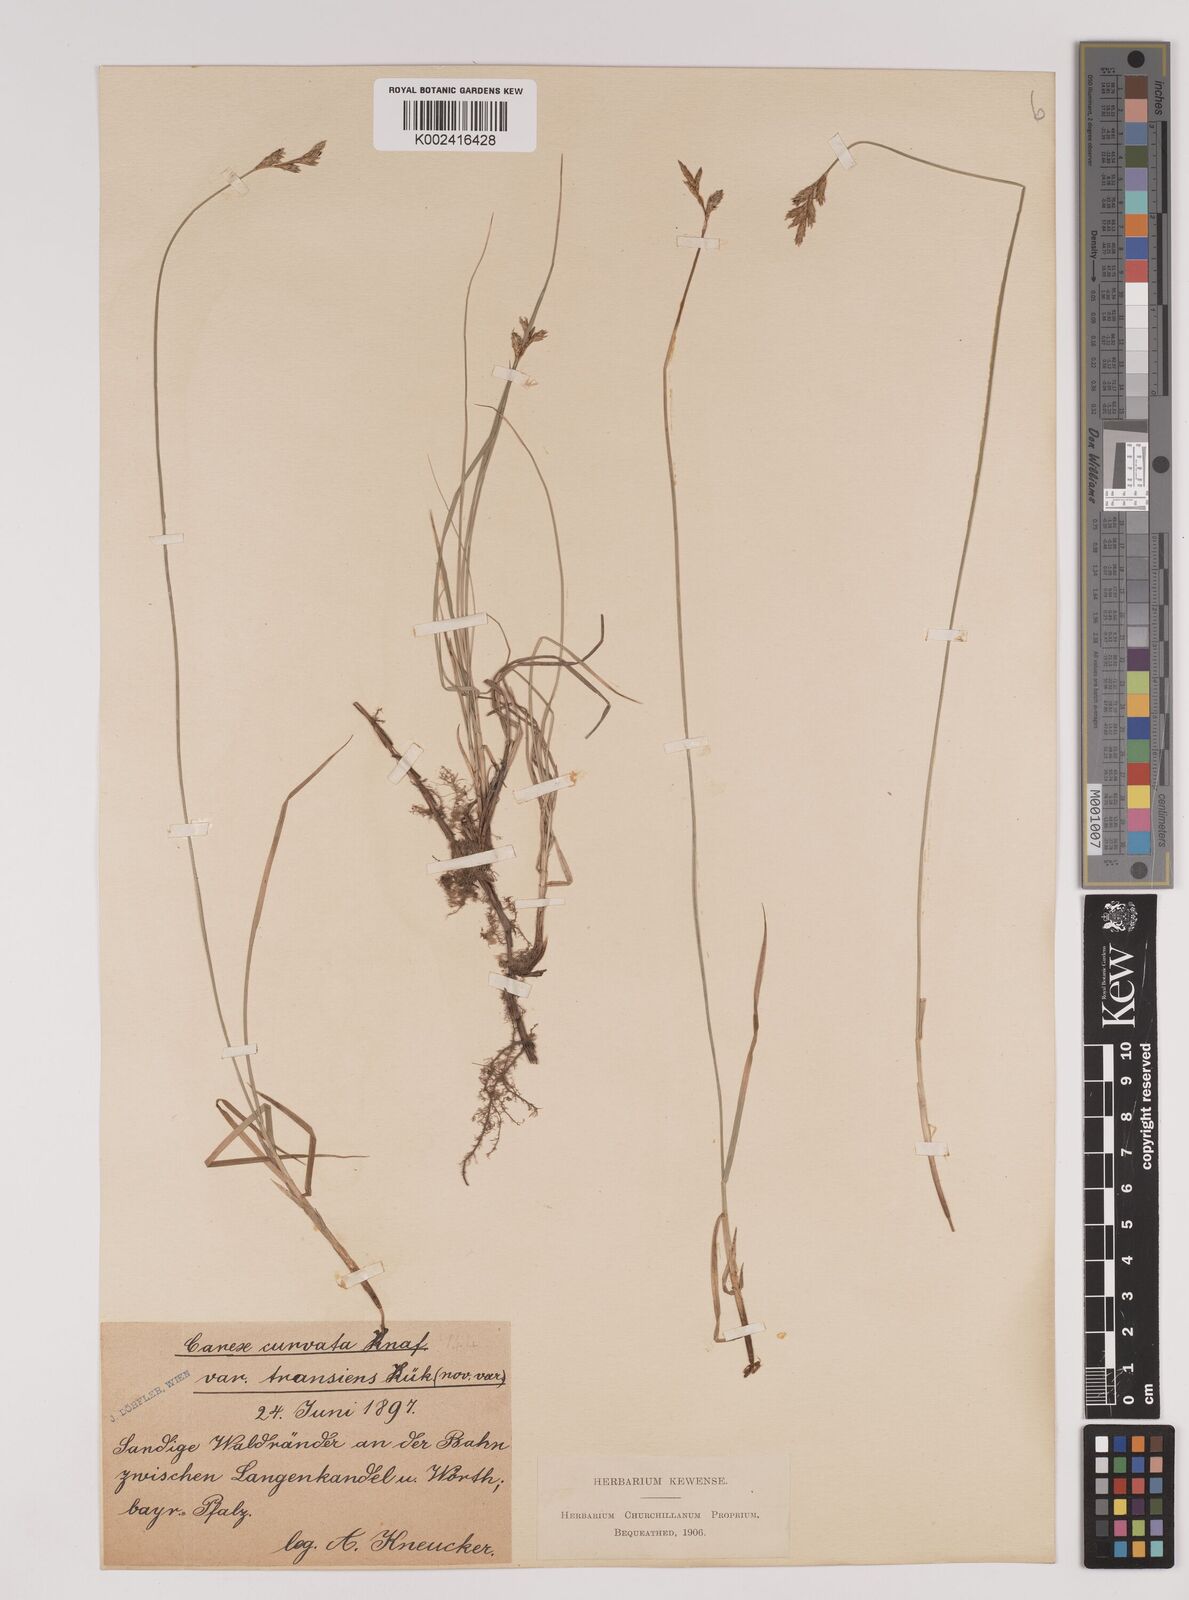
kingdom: Plantae
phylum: Tracheophyta
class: Liliopsida
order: Poales
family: Cyperaceae
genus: Carex
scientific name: Carex brizoides
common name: Quaking-grass sedge
